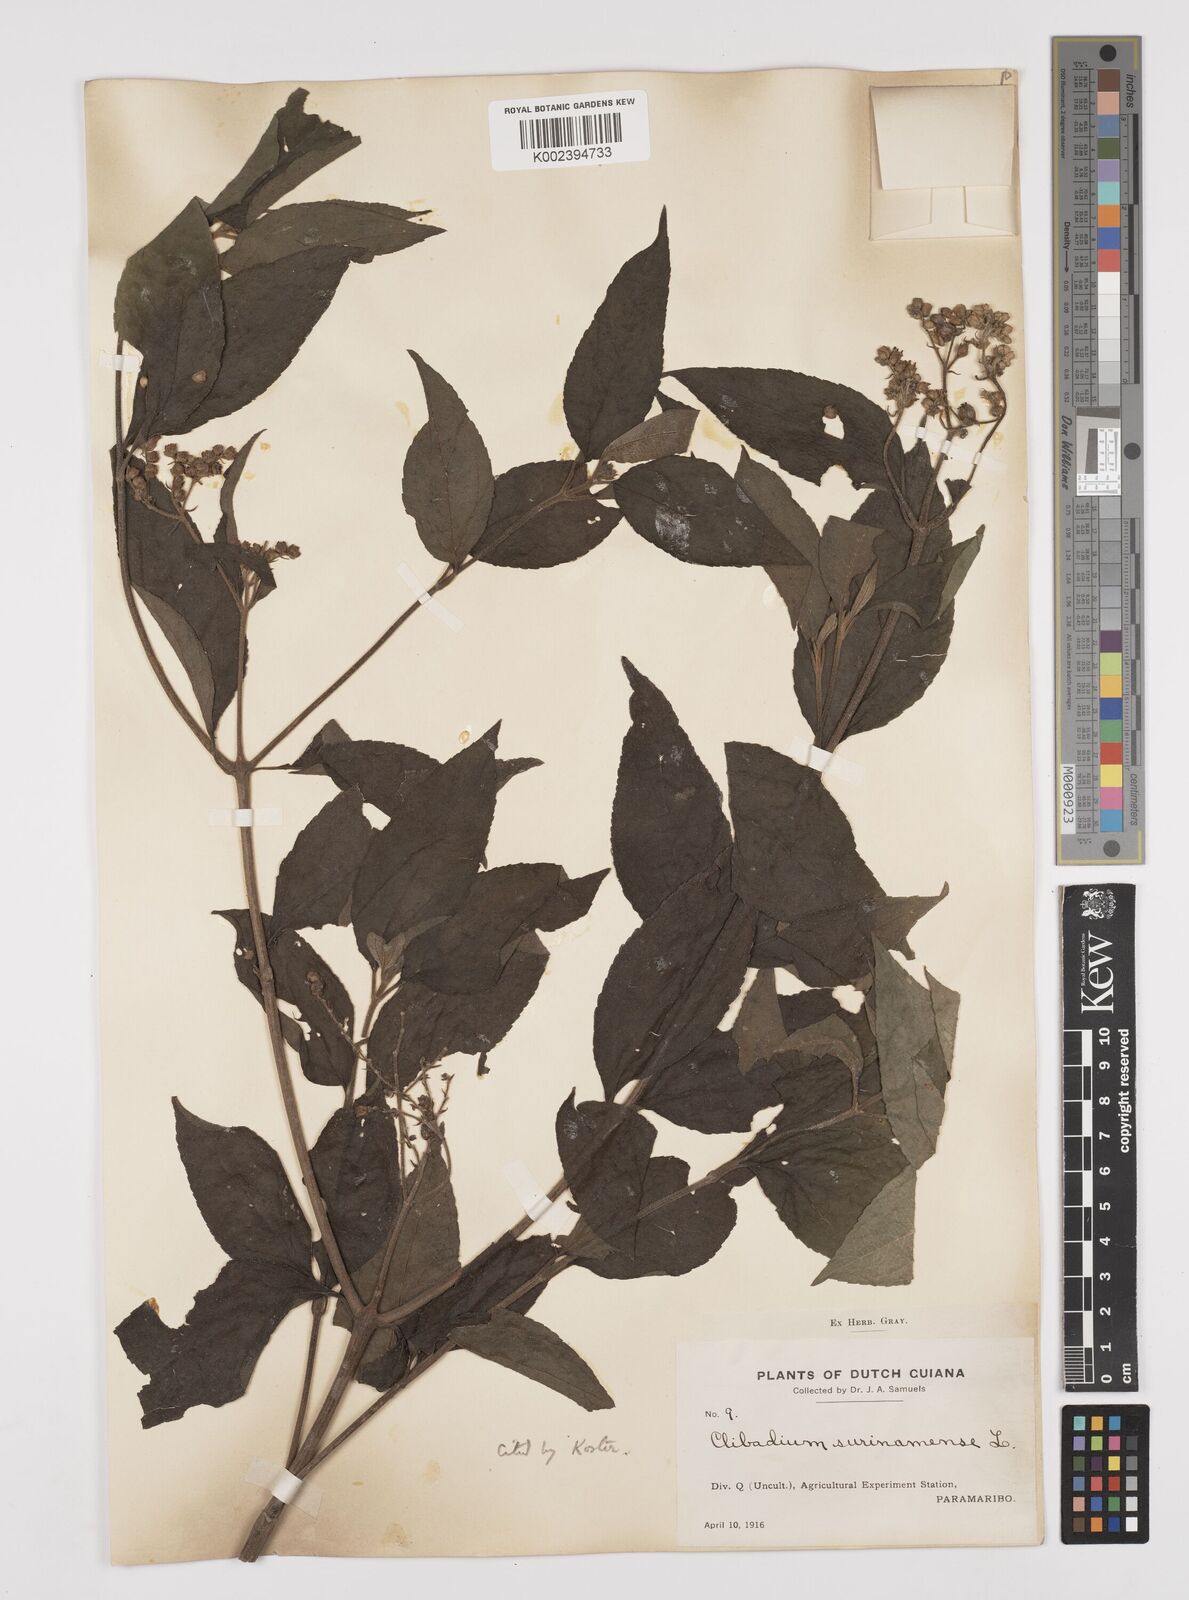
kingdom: Plantae
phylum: Tracheophyta
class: Magnoliopsida
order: Asterales
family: Asteraceae
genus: Clibadium
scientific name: Clibadium surinamense
